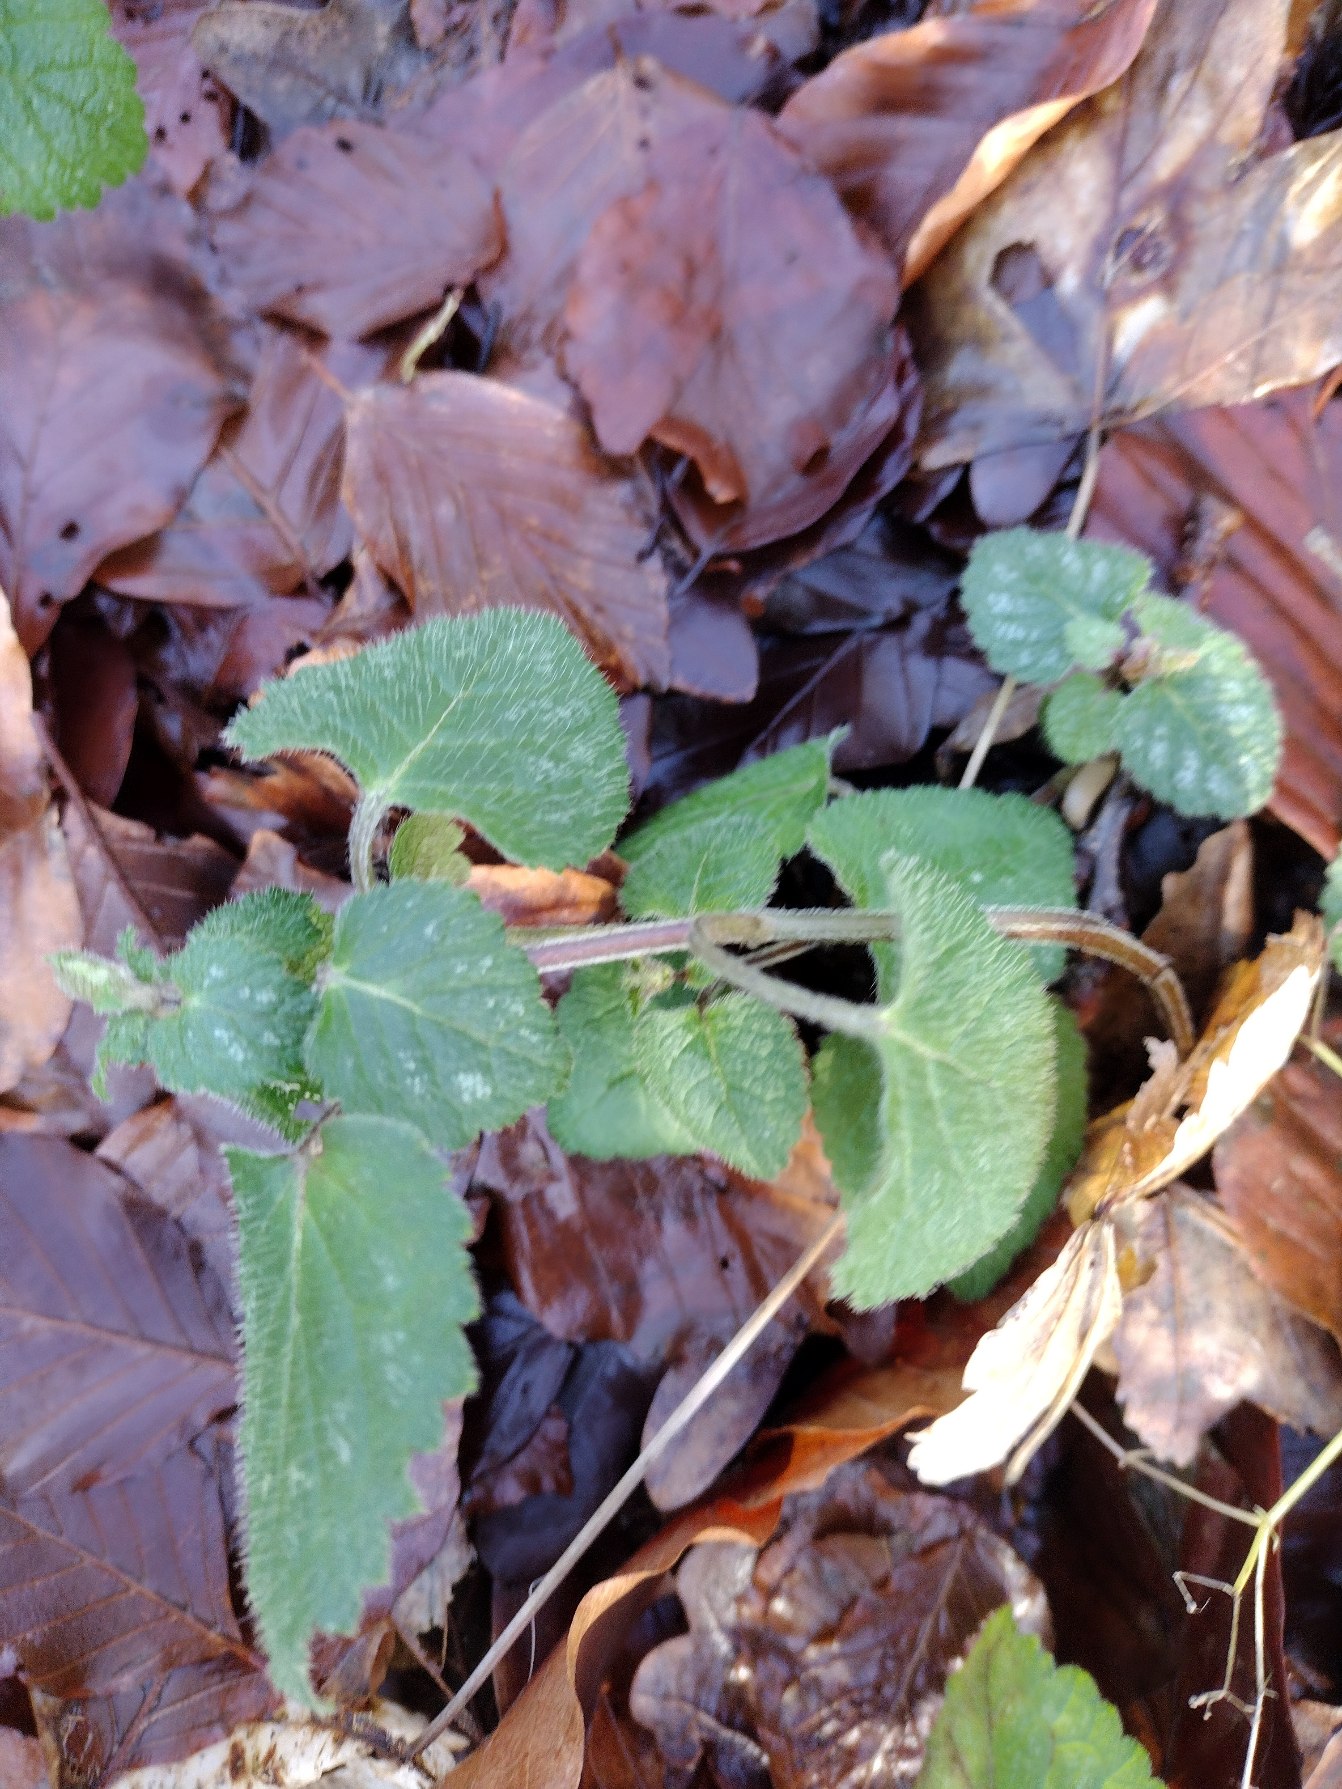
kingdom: Plantae
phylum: Tracheophyta
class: Magnoliopsida
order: Lamiales
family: Lamiaceae
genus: Lamium
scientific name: Lamium galeobdolon
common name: Guldnælde
